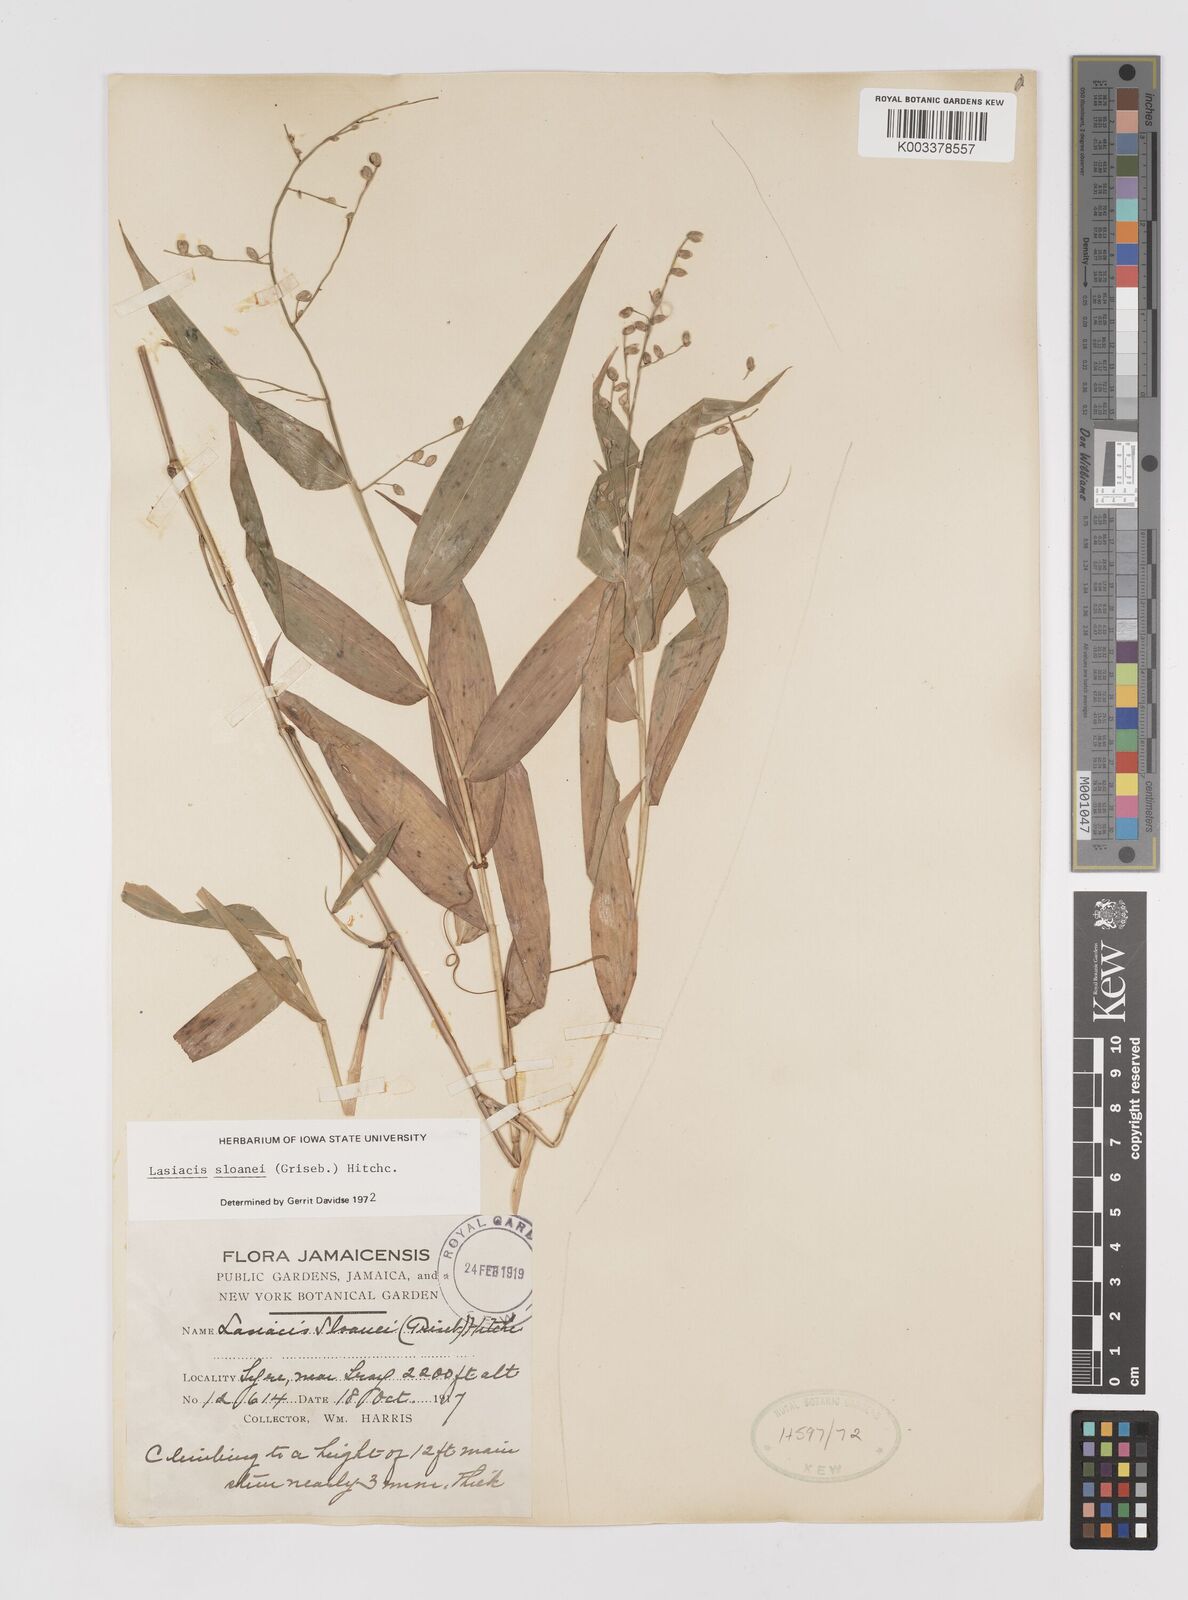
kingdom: Plantae
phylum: Tracheophyta
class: Liliopsida
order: Poales
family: Poaceae
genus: Lasiacis
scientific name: Lasiacis sloanei
